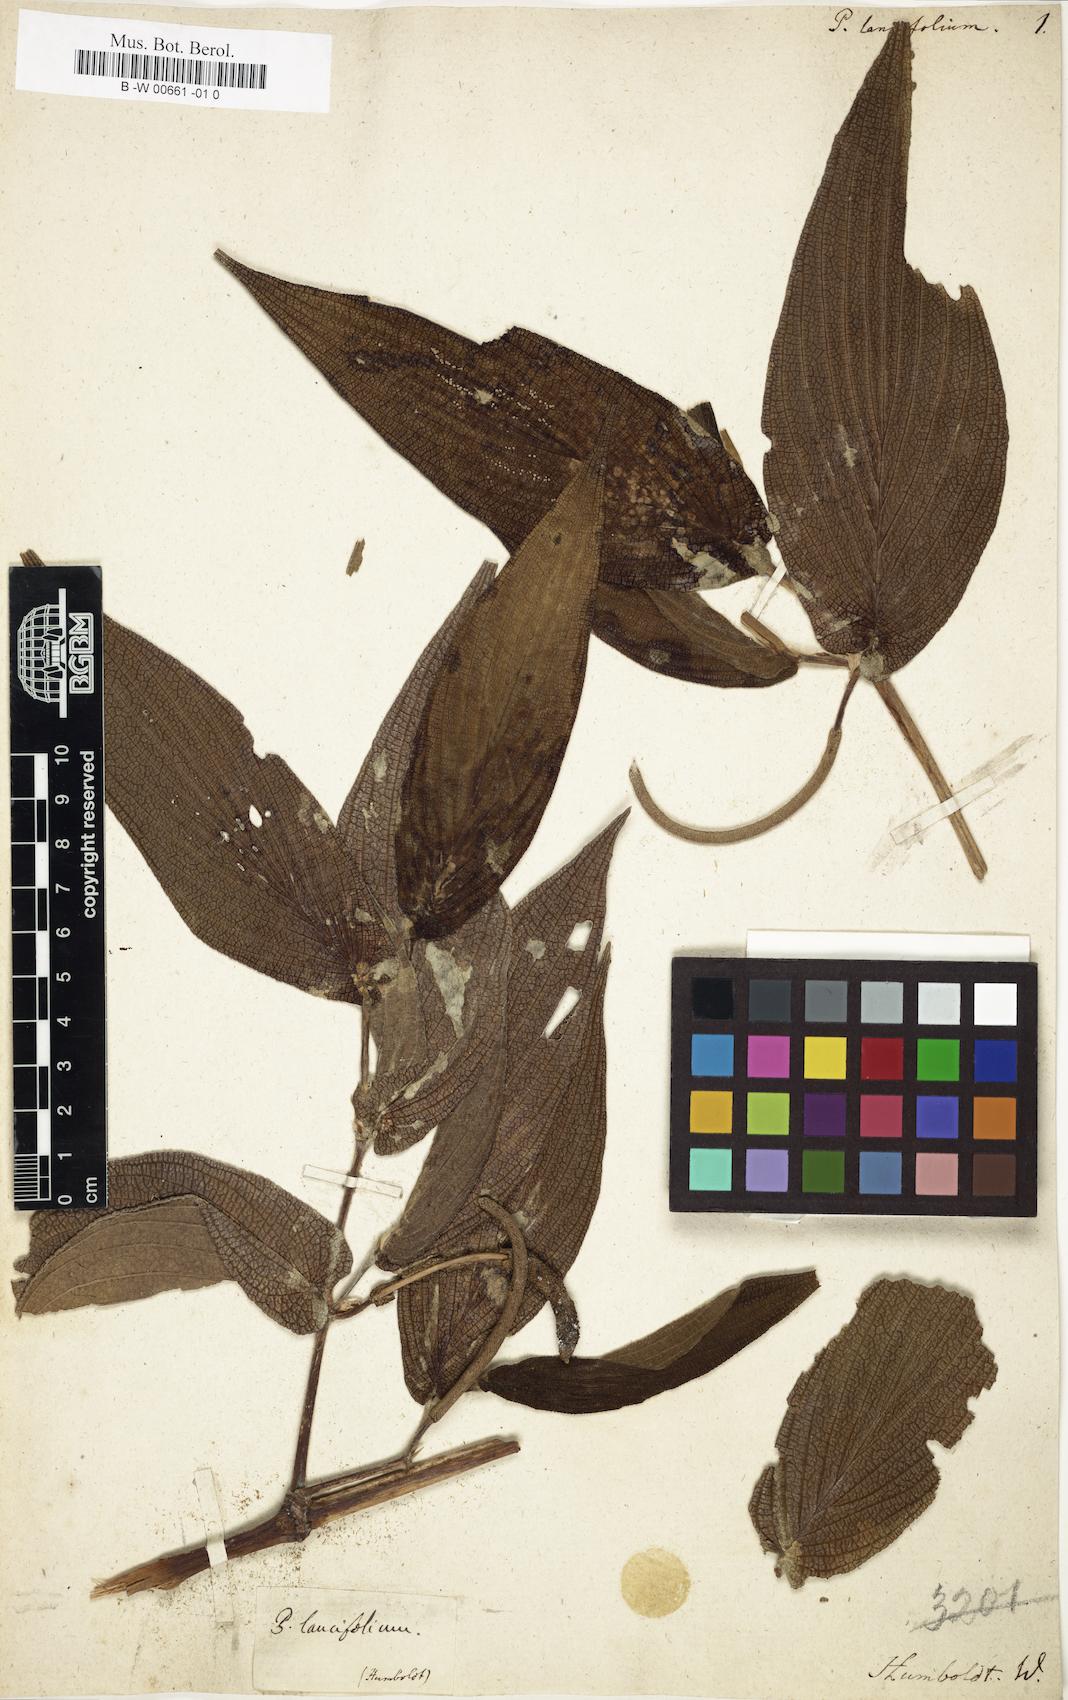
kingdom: Plantae
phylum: Tracheophyta
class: Magnoliopsida
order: Piperales
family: Piperaceae
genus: Piper
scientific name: Piper aduncum
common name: Spiked pepper
